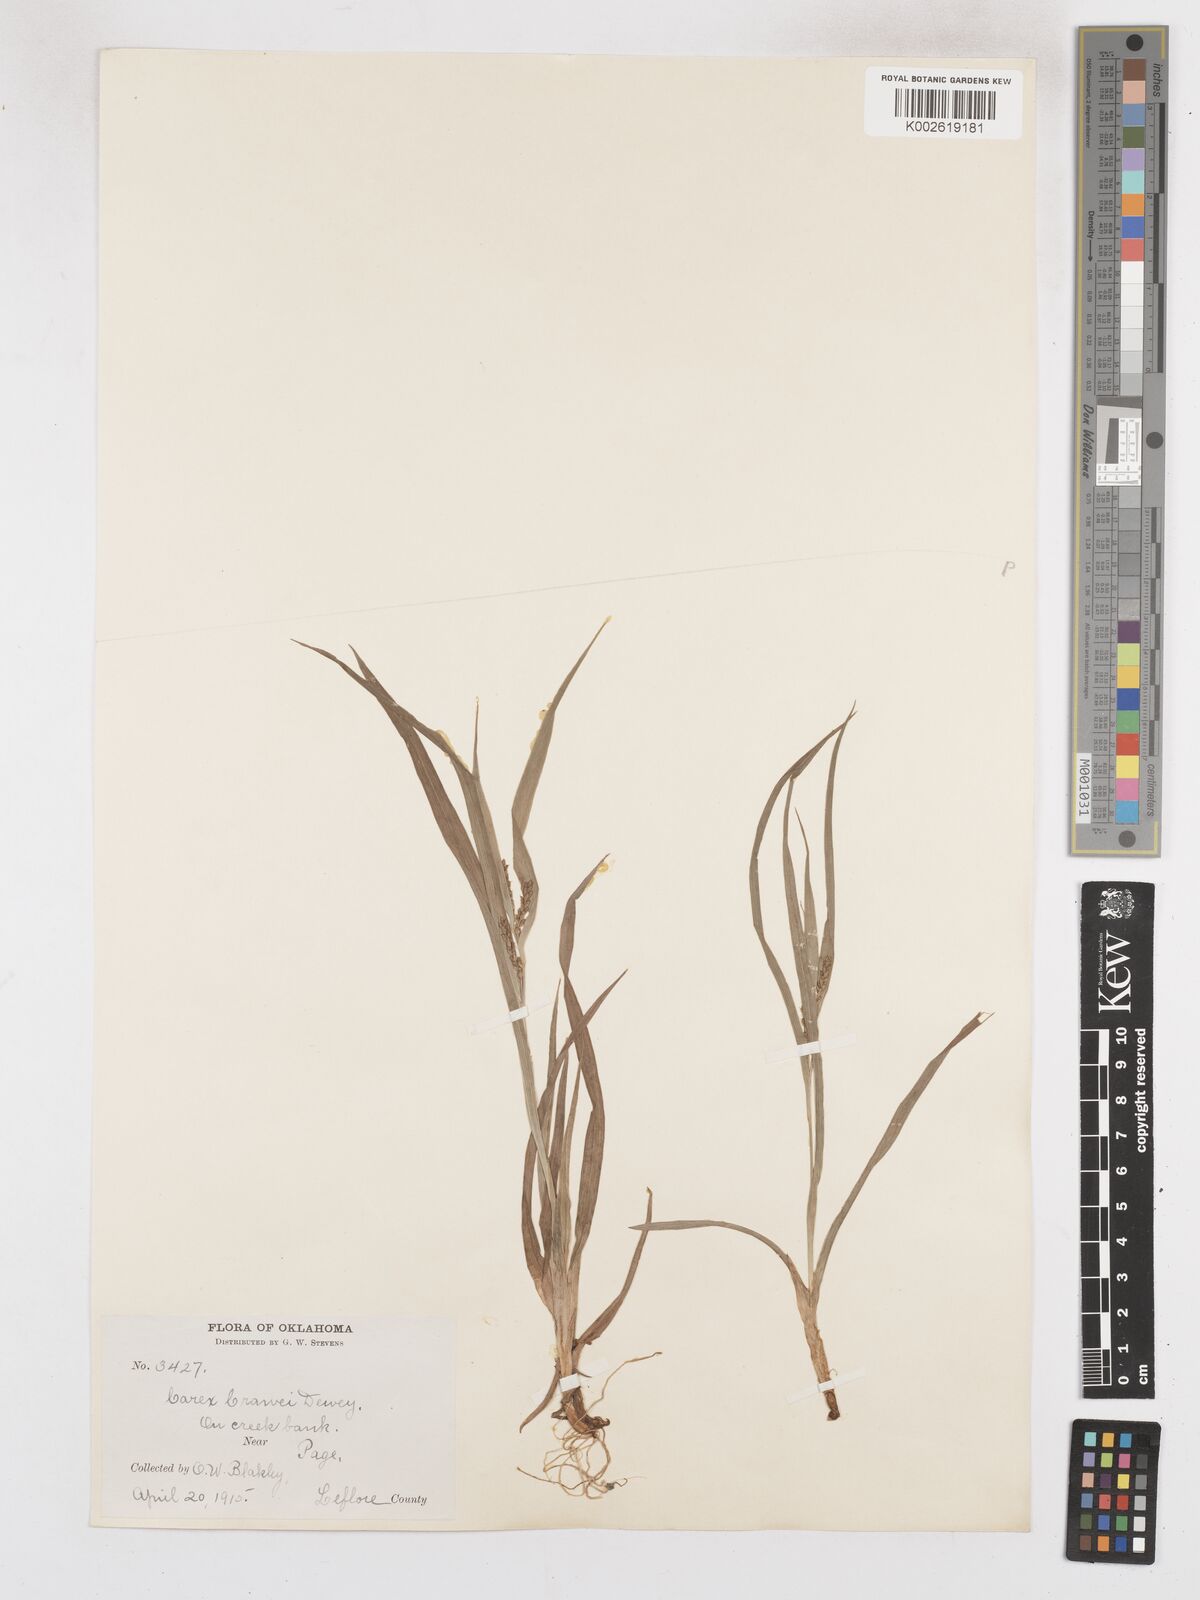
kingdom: Plantae
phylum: Tracheophyta
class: Liliopsida
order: Poales
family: Cyperaceae
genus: Carex
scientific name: Carex crawei
